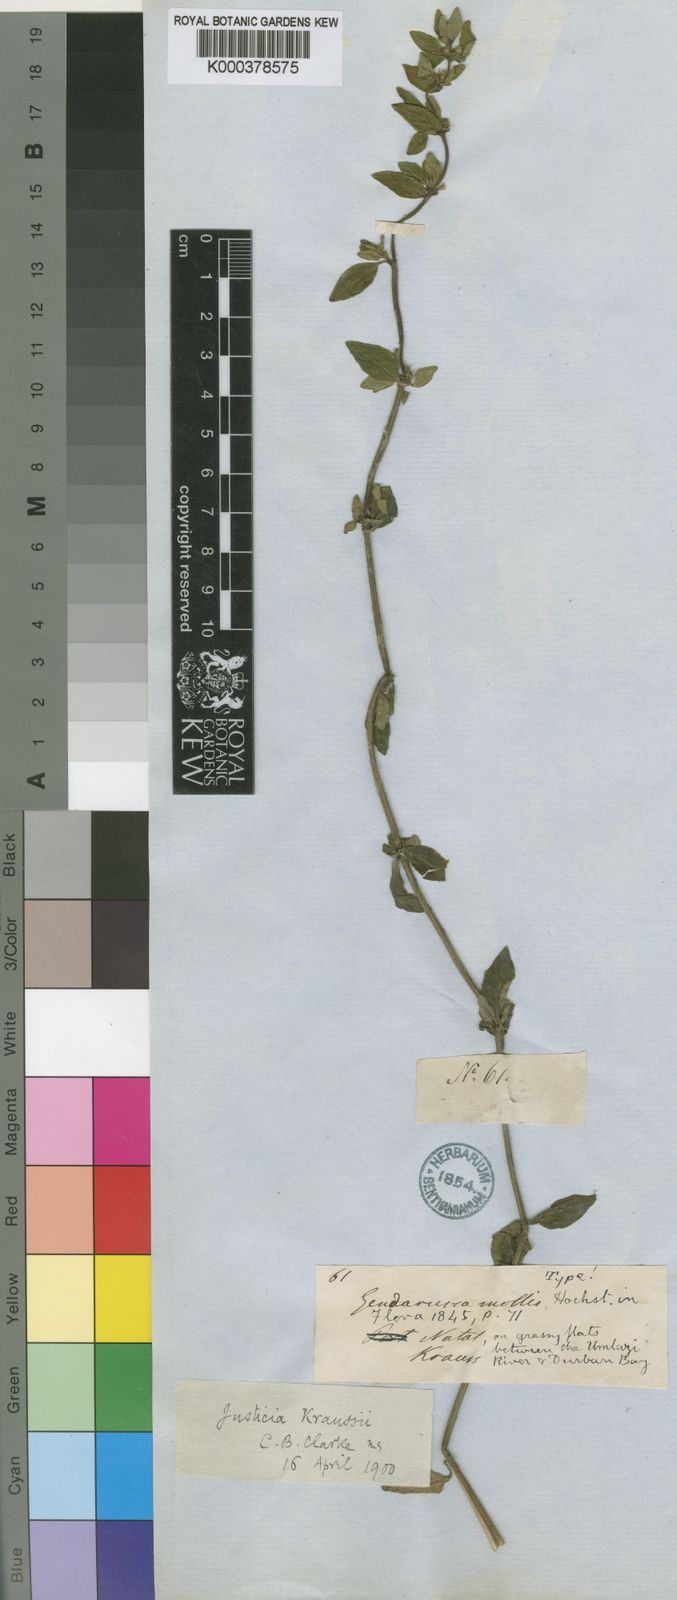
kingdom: Plantae
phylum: Tracheophyta
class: Magnoliopsida
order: Lamiales
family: Acanthaceae
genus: Justicia
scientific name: Justicia protracta
